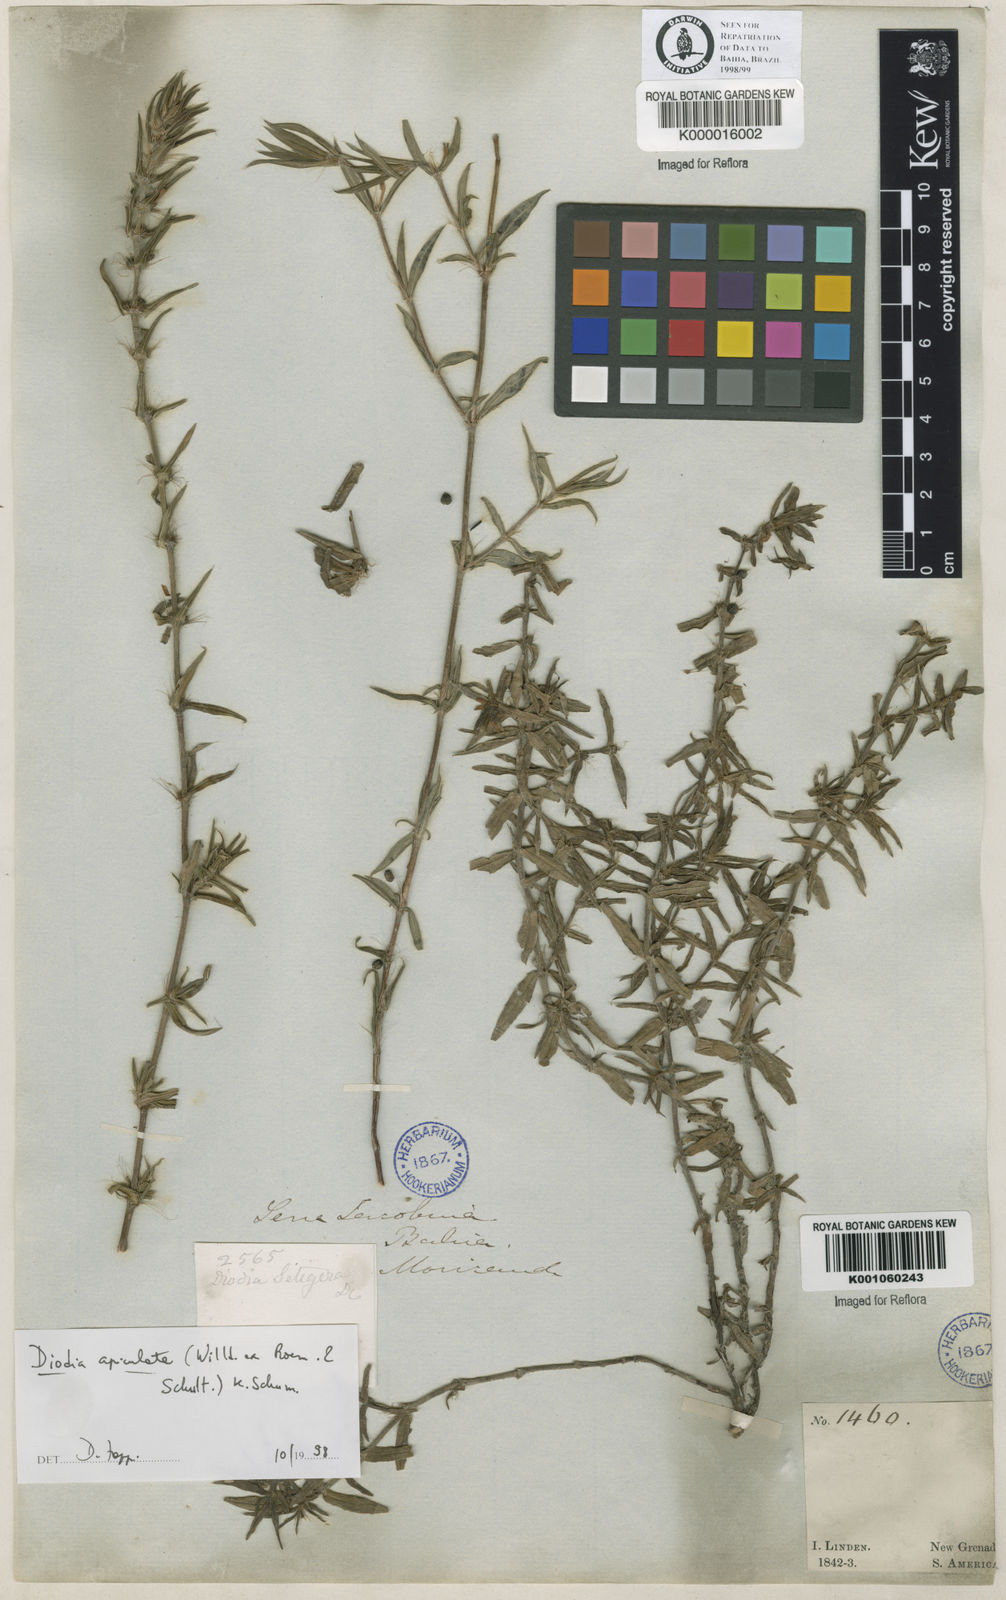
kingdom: Plantae
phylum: Tracheophyta
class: Magnoliopsida
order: Gentianales
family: Rubiaceae
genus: Hexasepalum
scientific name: Hexasepalum apiculatum
